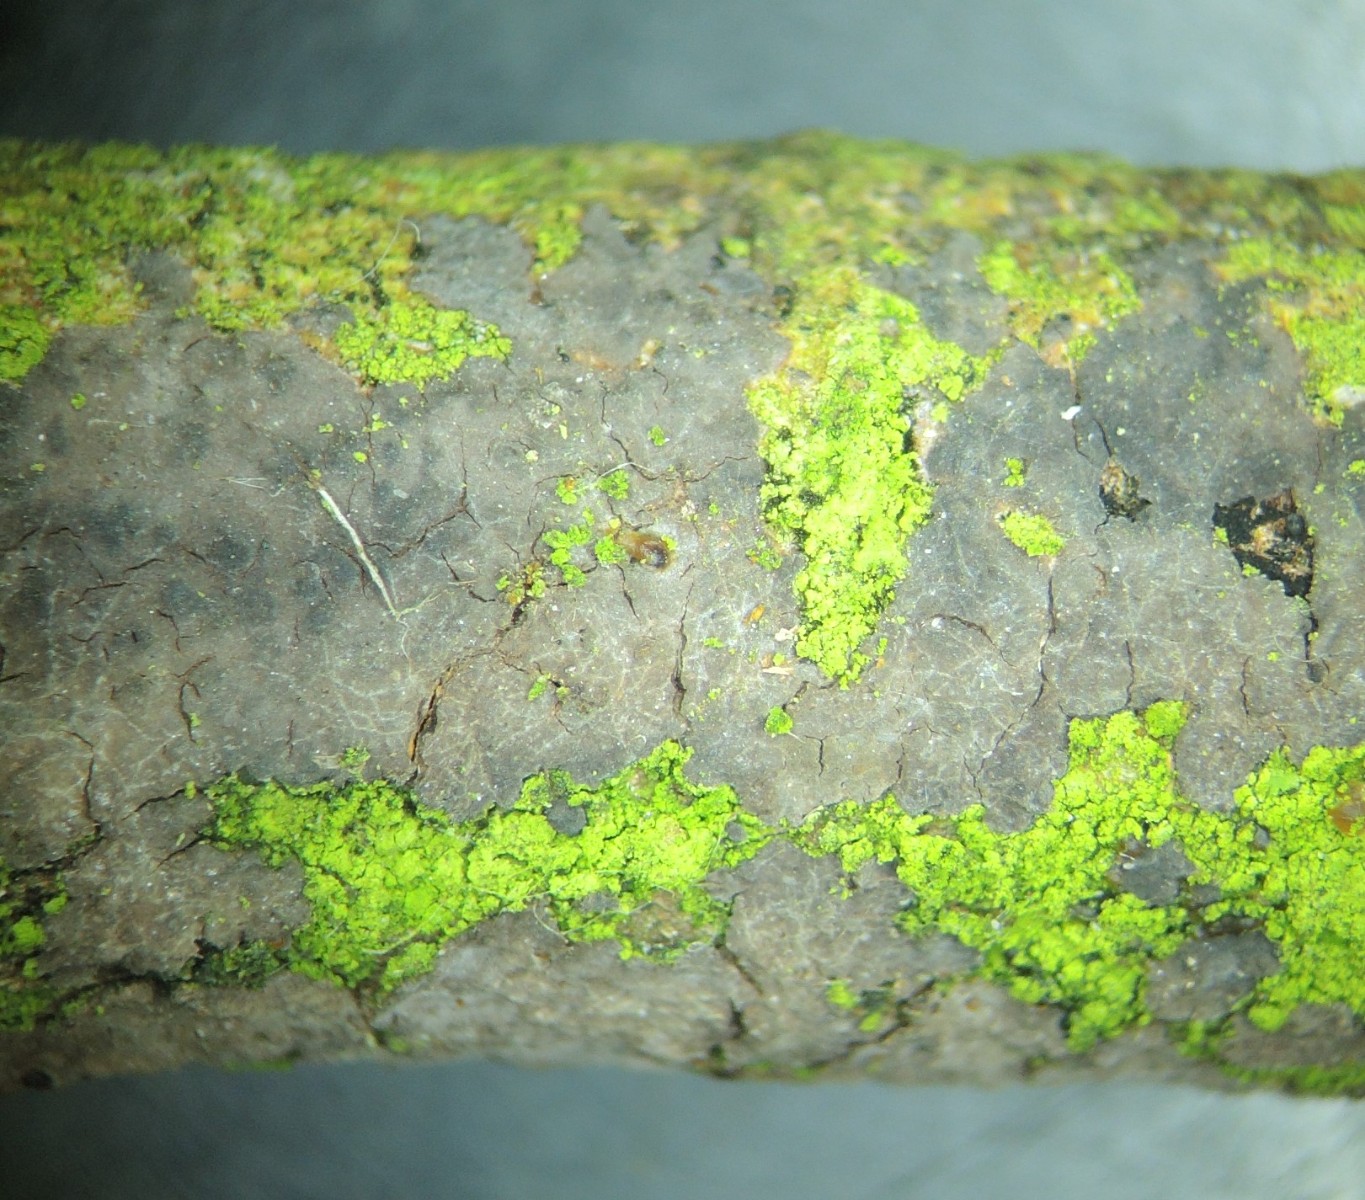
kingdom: Fungi
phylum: Basidiomycota
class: Agaricomycetes
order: Russulales
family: Peniophoraceae
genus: Peniophora
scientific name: Peniophora violaceolivida
